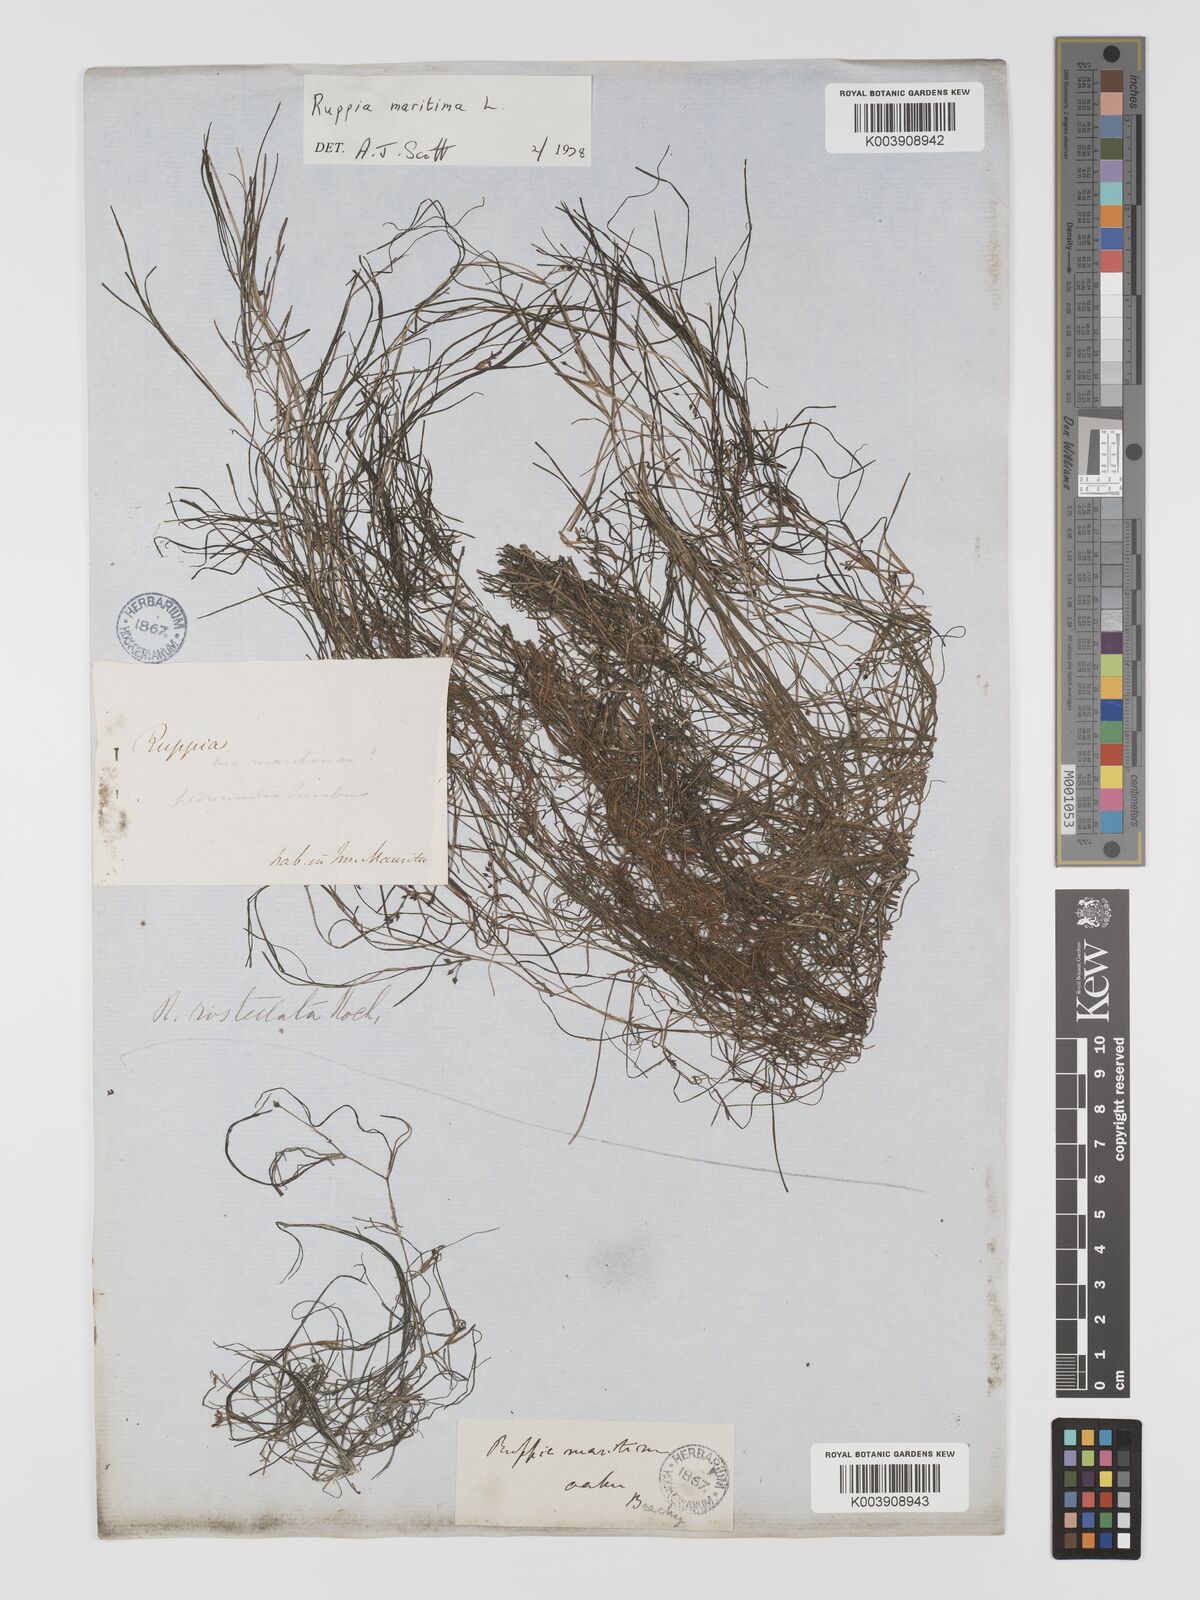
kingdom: Plantae
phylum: Tracheophyta
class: Liliopsida
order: Alismatales
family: Ruppiaceae
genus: Ruppia
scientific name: Ruppia maritima
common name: Beaked tasselweed
